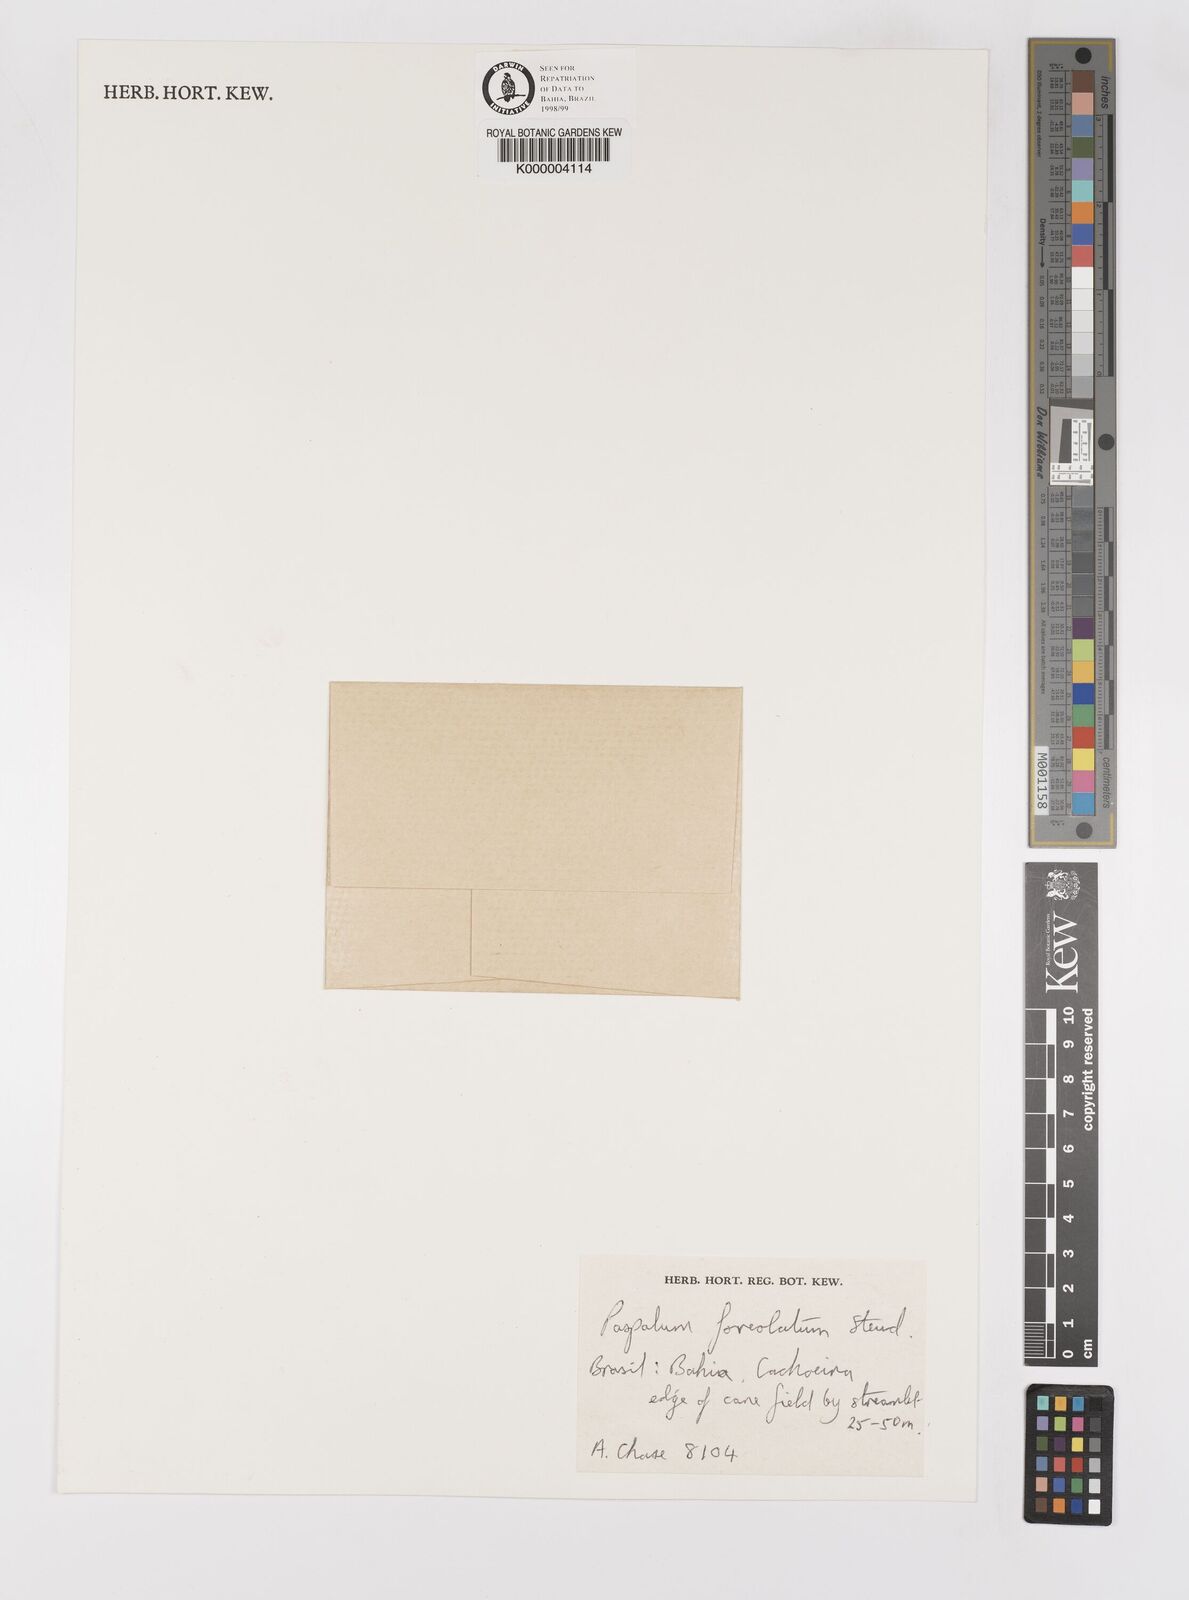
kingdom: Plantae
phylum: Tracheophyta
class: Liliopsida
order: Poales
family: Poaceae
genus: Paspalum
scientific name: Paspalum melanospermum
